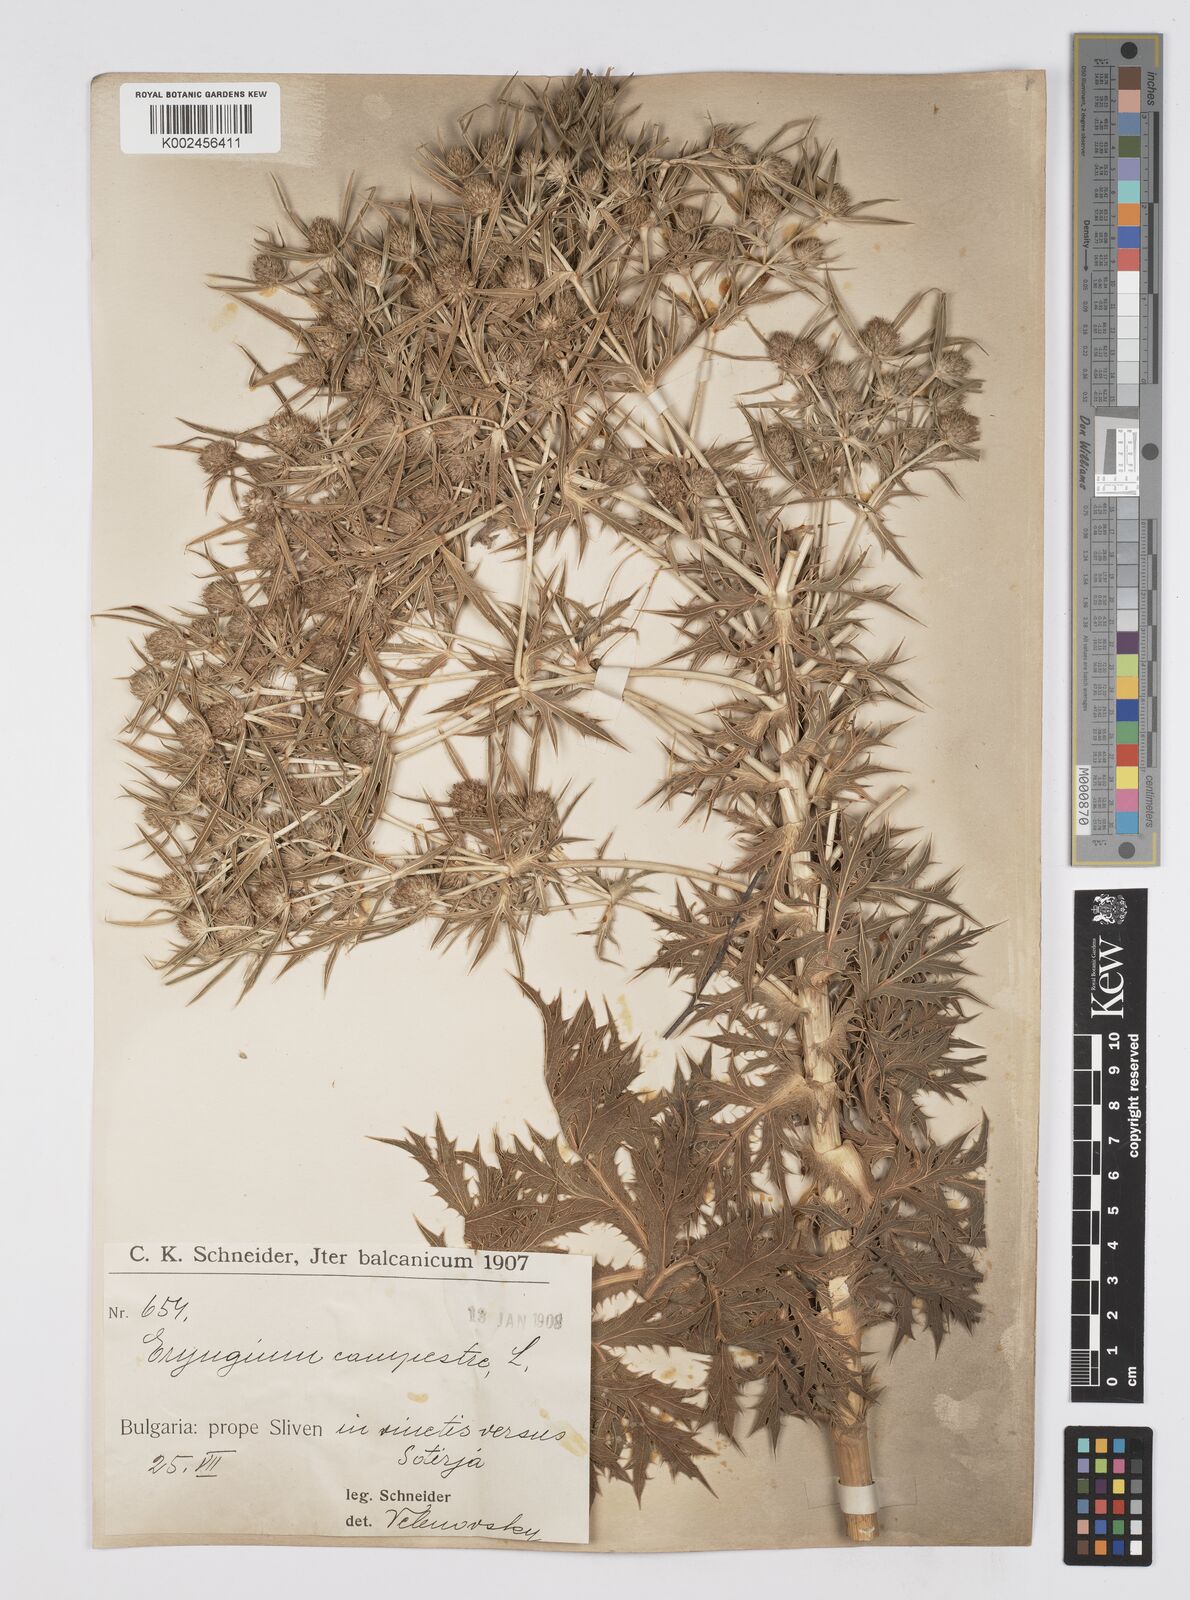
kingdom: Plantae
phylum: Tracheophyta
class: Magnoliopsida
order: Apiales
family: Apiaceae
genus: Eryngium
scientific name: Eryngium campestre
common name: Field eryngo
